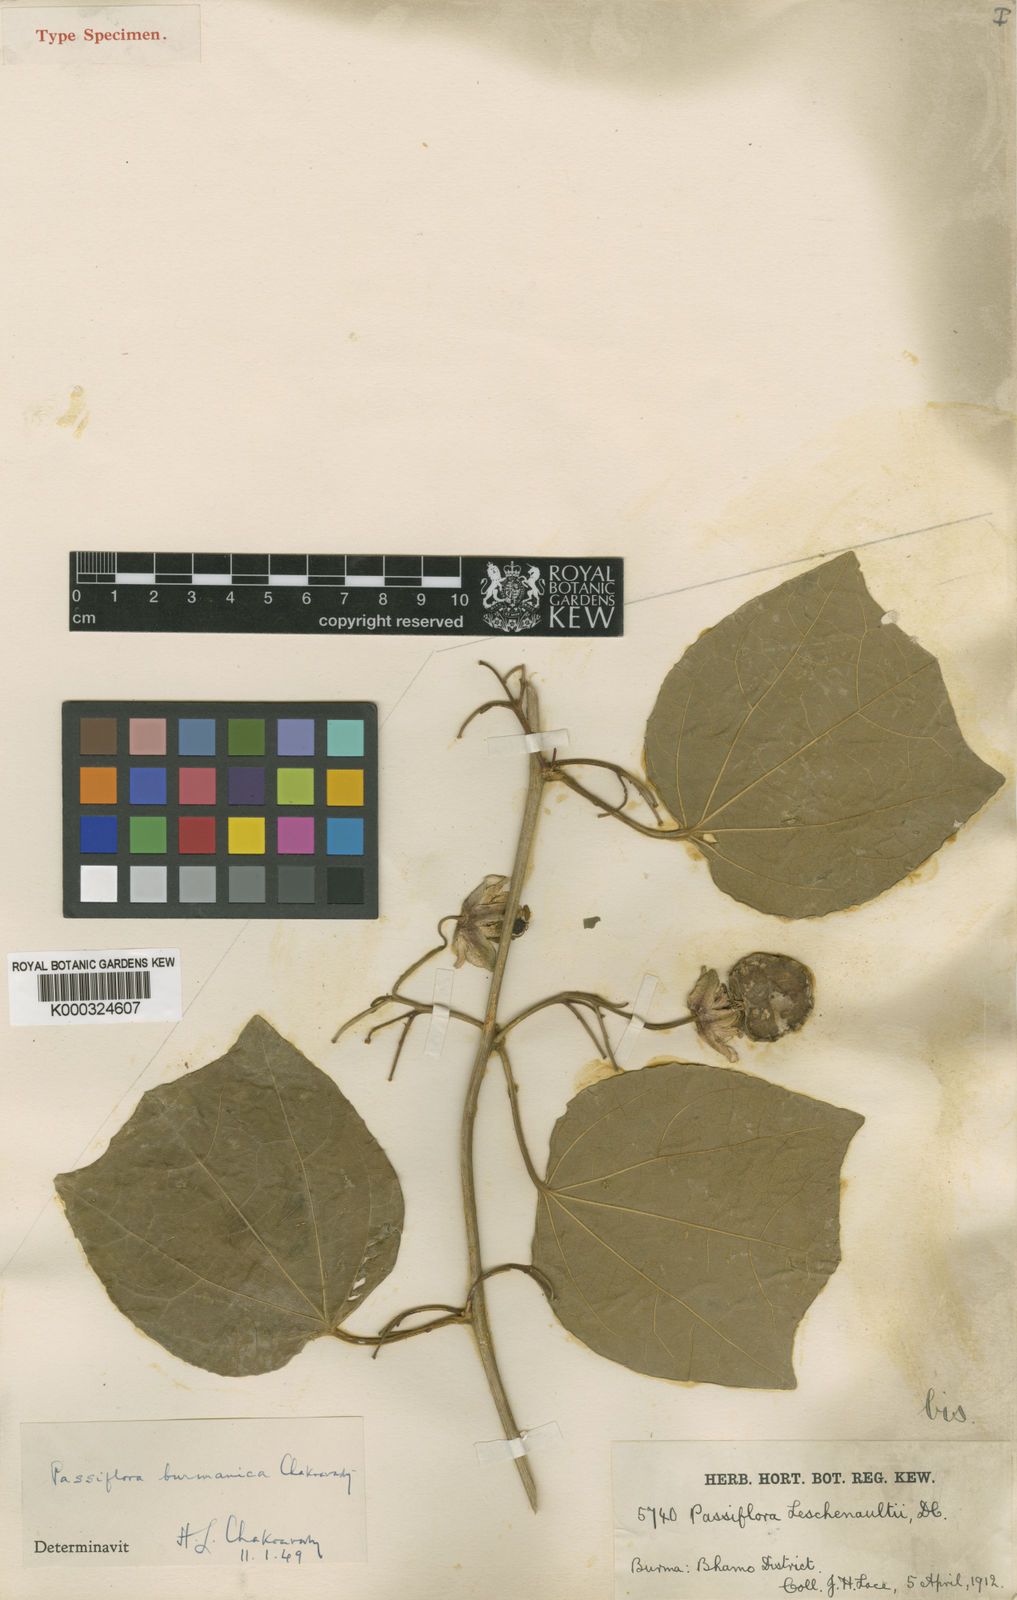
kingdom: Plantae
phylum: Tracheophyta
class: Magnoliopsida
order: Malpighiales
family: Passifloraceae
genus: Passiflora
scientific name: Passiflora jugorum
